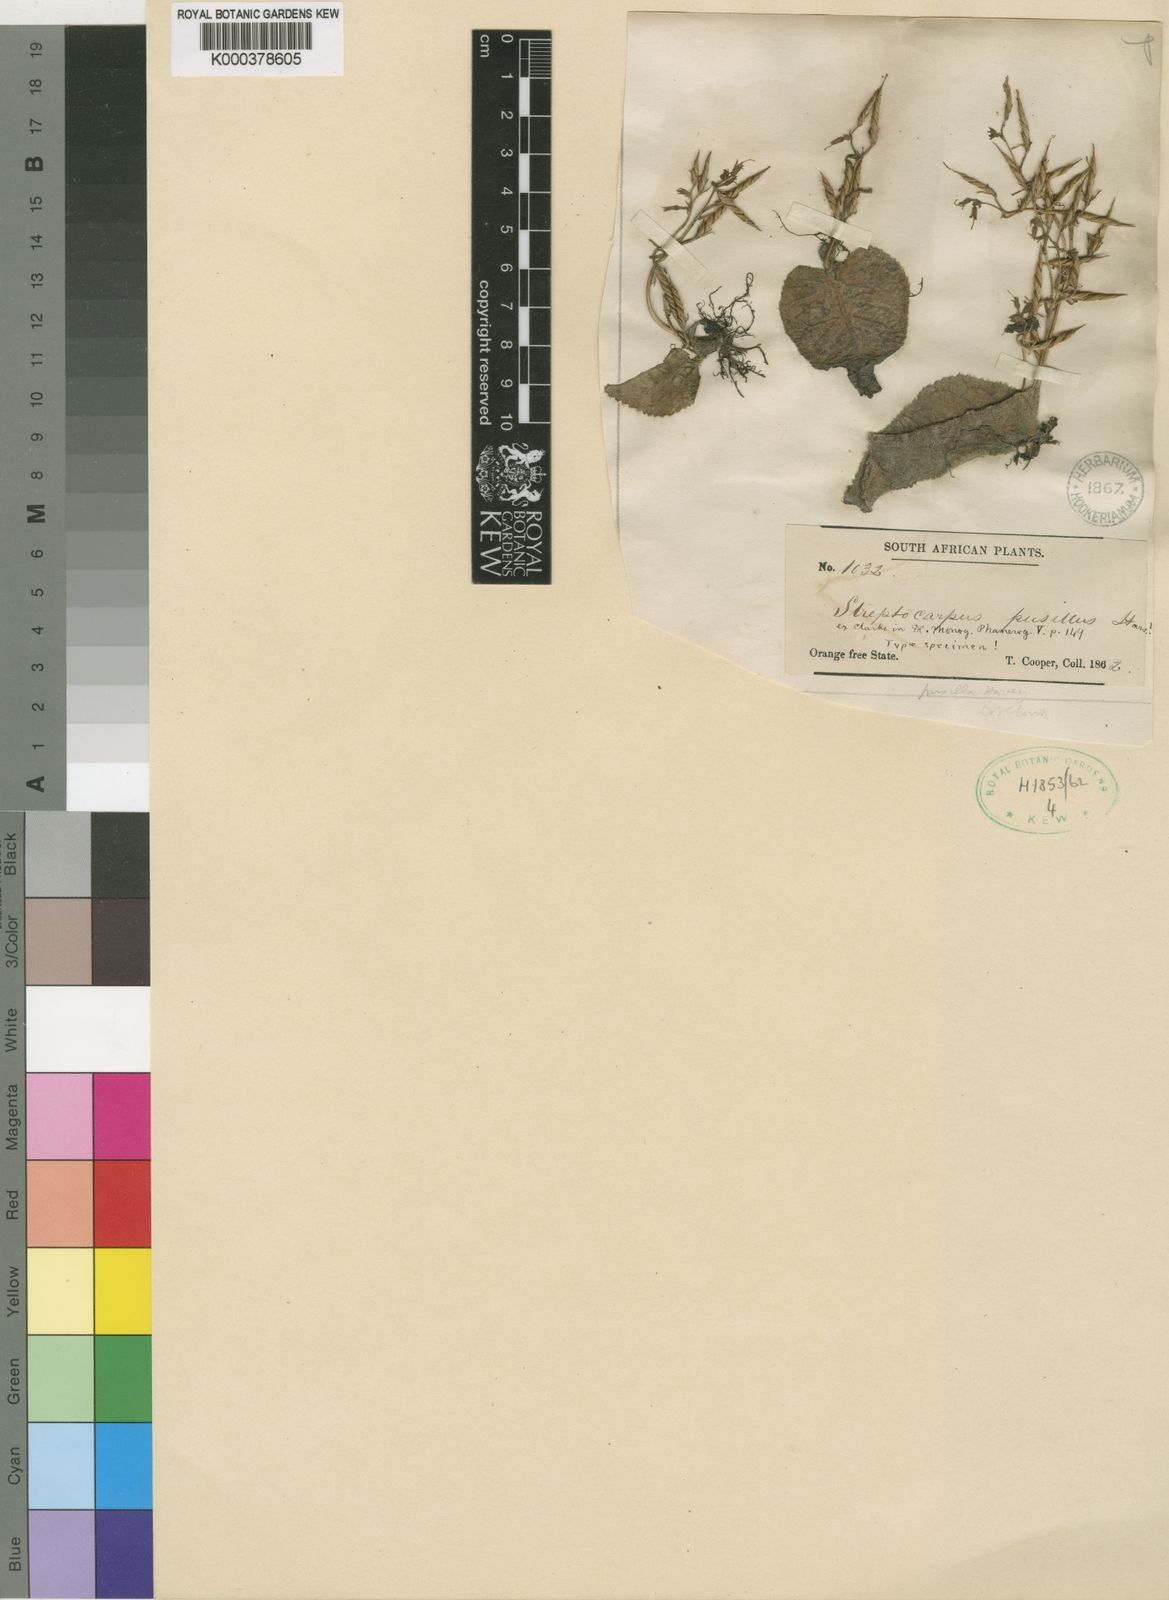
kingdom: Plantae
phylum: Tracheophyta
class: Magnoliopsida
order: Lamiales
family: Gesneriaceae
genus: Streptocarpus
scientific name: Streptocarpus pusillus
